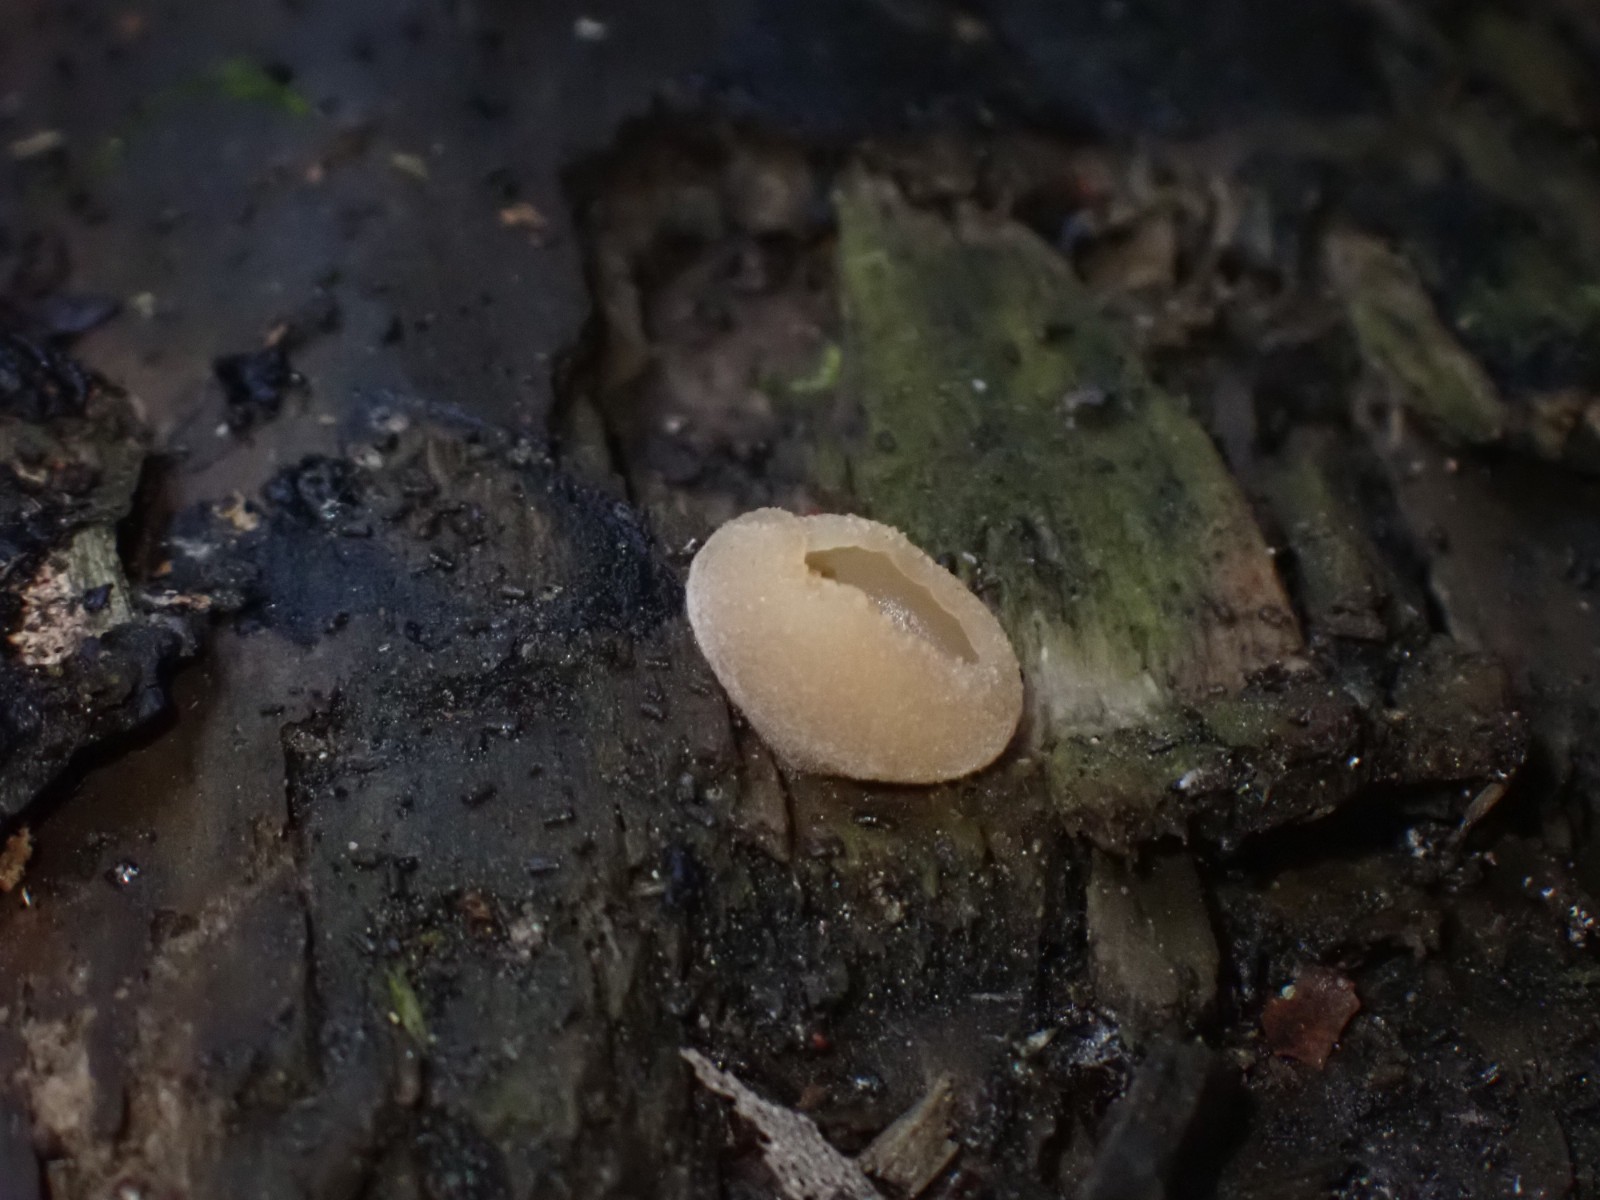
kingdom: Fungi
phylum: Ascomycota
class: Pezizomycetes
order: Pezizales
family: Pezizaceae
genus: Peziza
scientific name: Peziza
